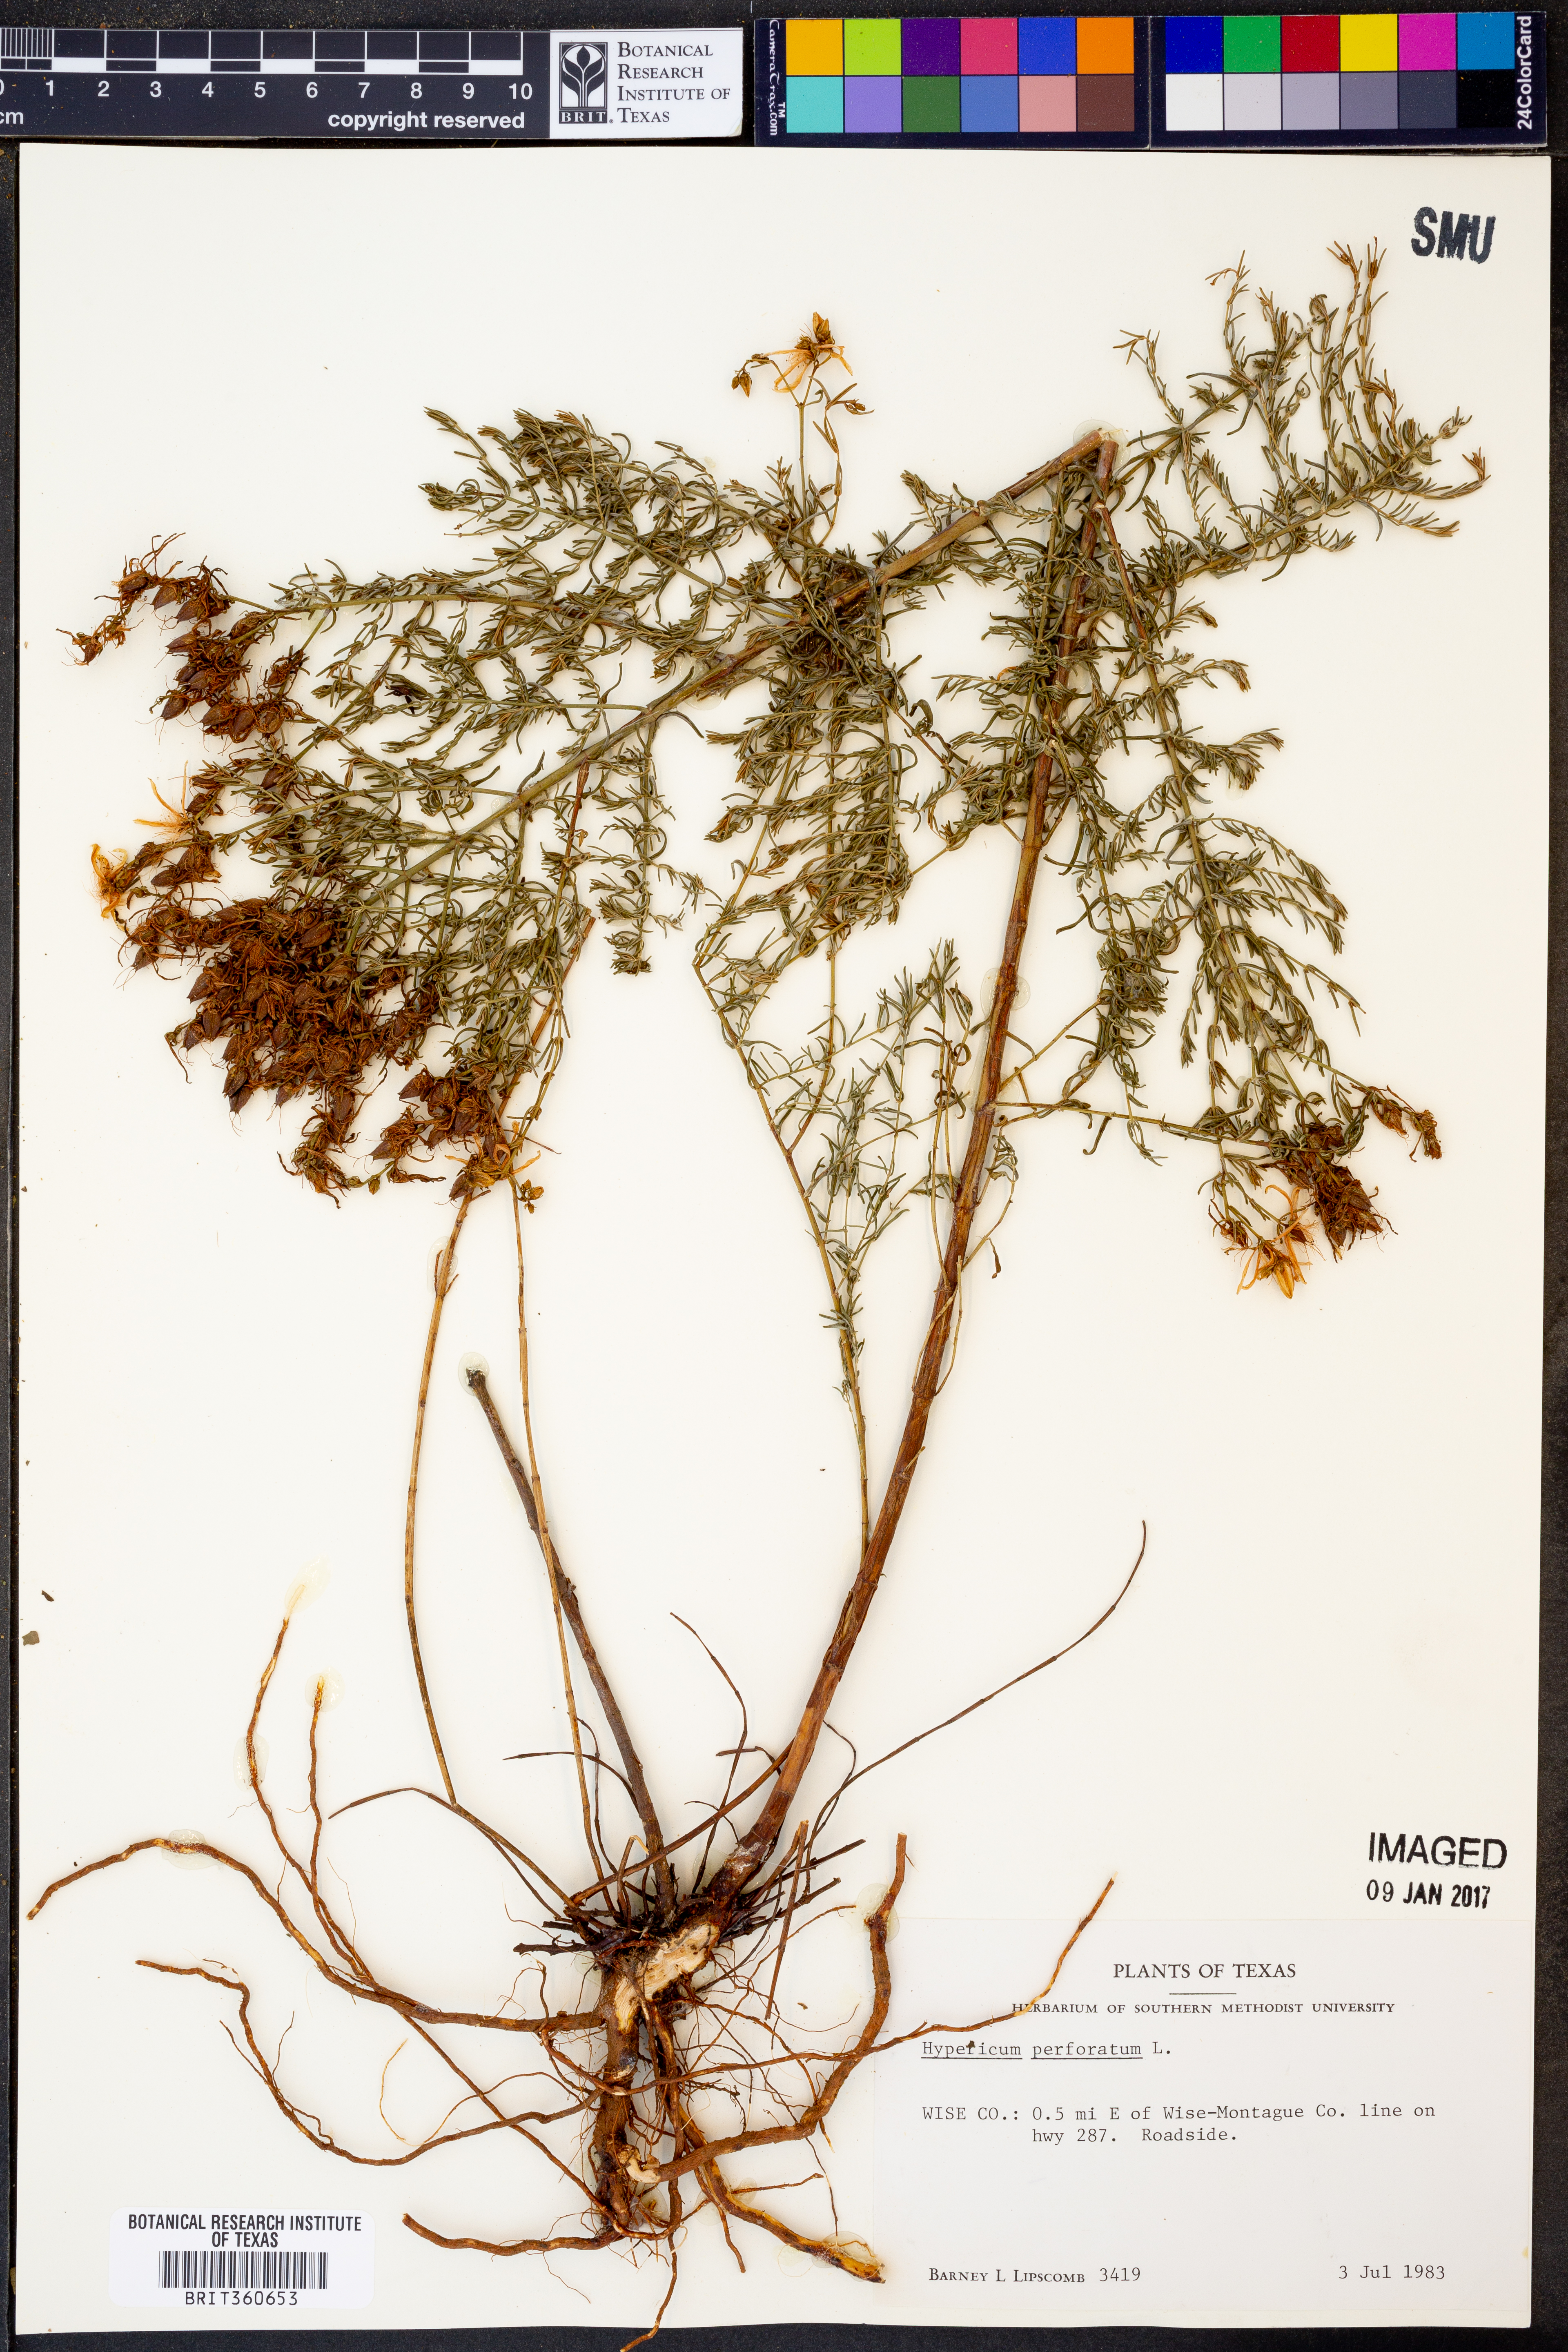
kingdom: Plantae
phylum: Tracheophyta
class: Magnoliopsida
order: Malpighiales
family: Hypericaceae
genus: Hypericum
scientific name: Hypericum perforatum
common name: Common st. johnswort
